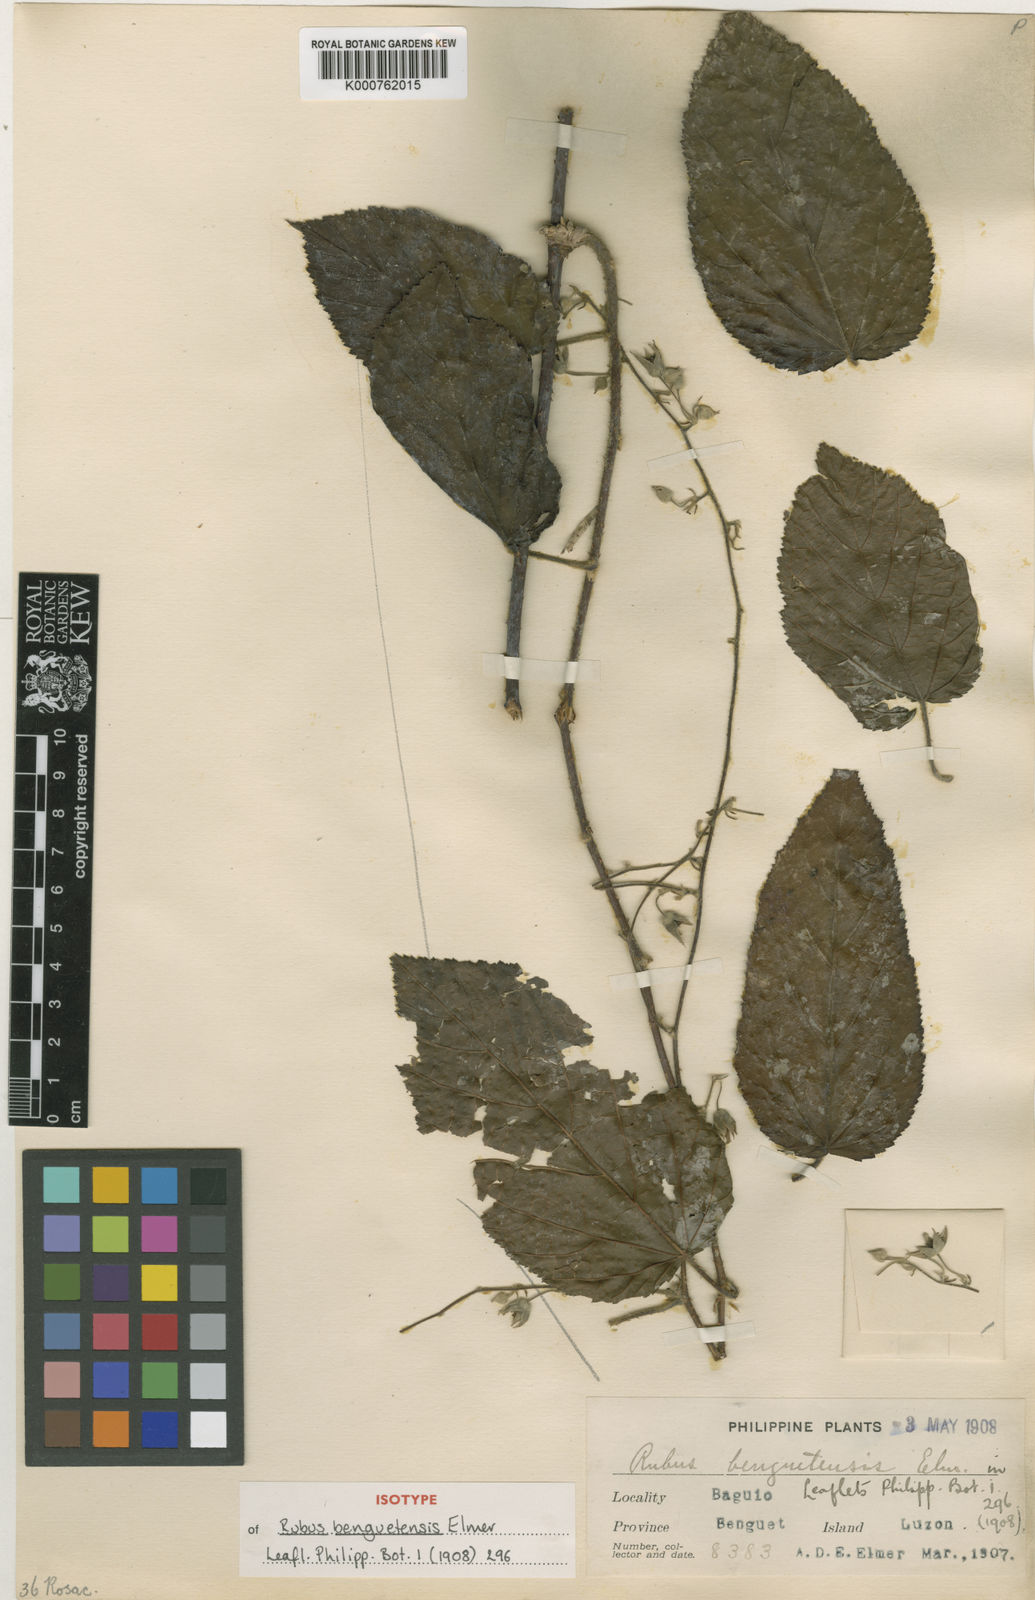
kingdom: Plantae
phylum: Tracheophyta
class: Magnoliopsida
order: Rosales
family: Rosaceae
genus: Rubus
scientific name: Rubus benguetensis
